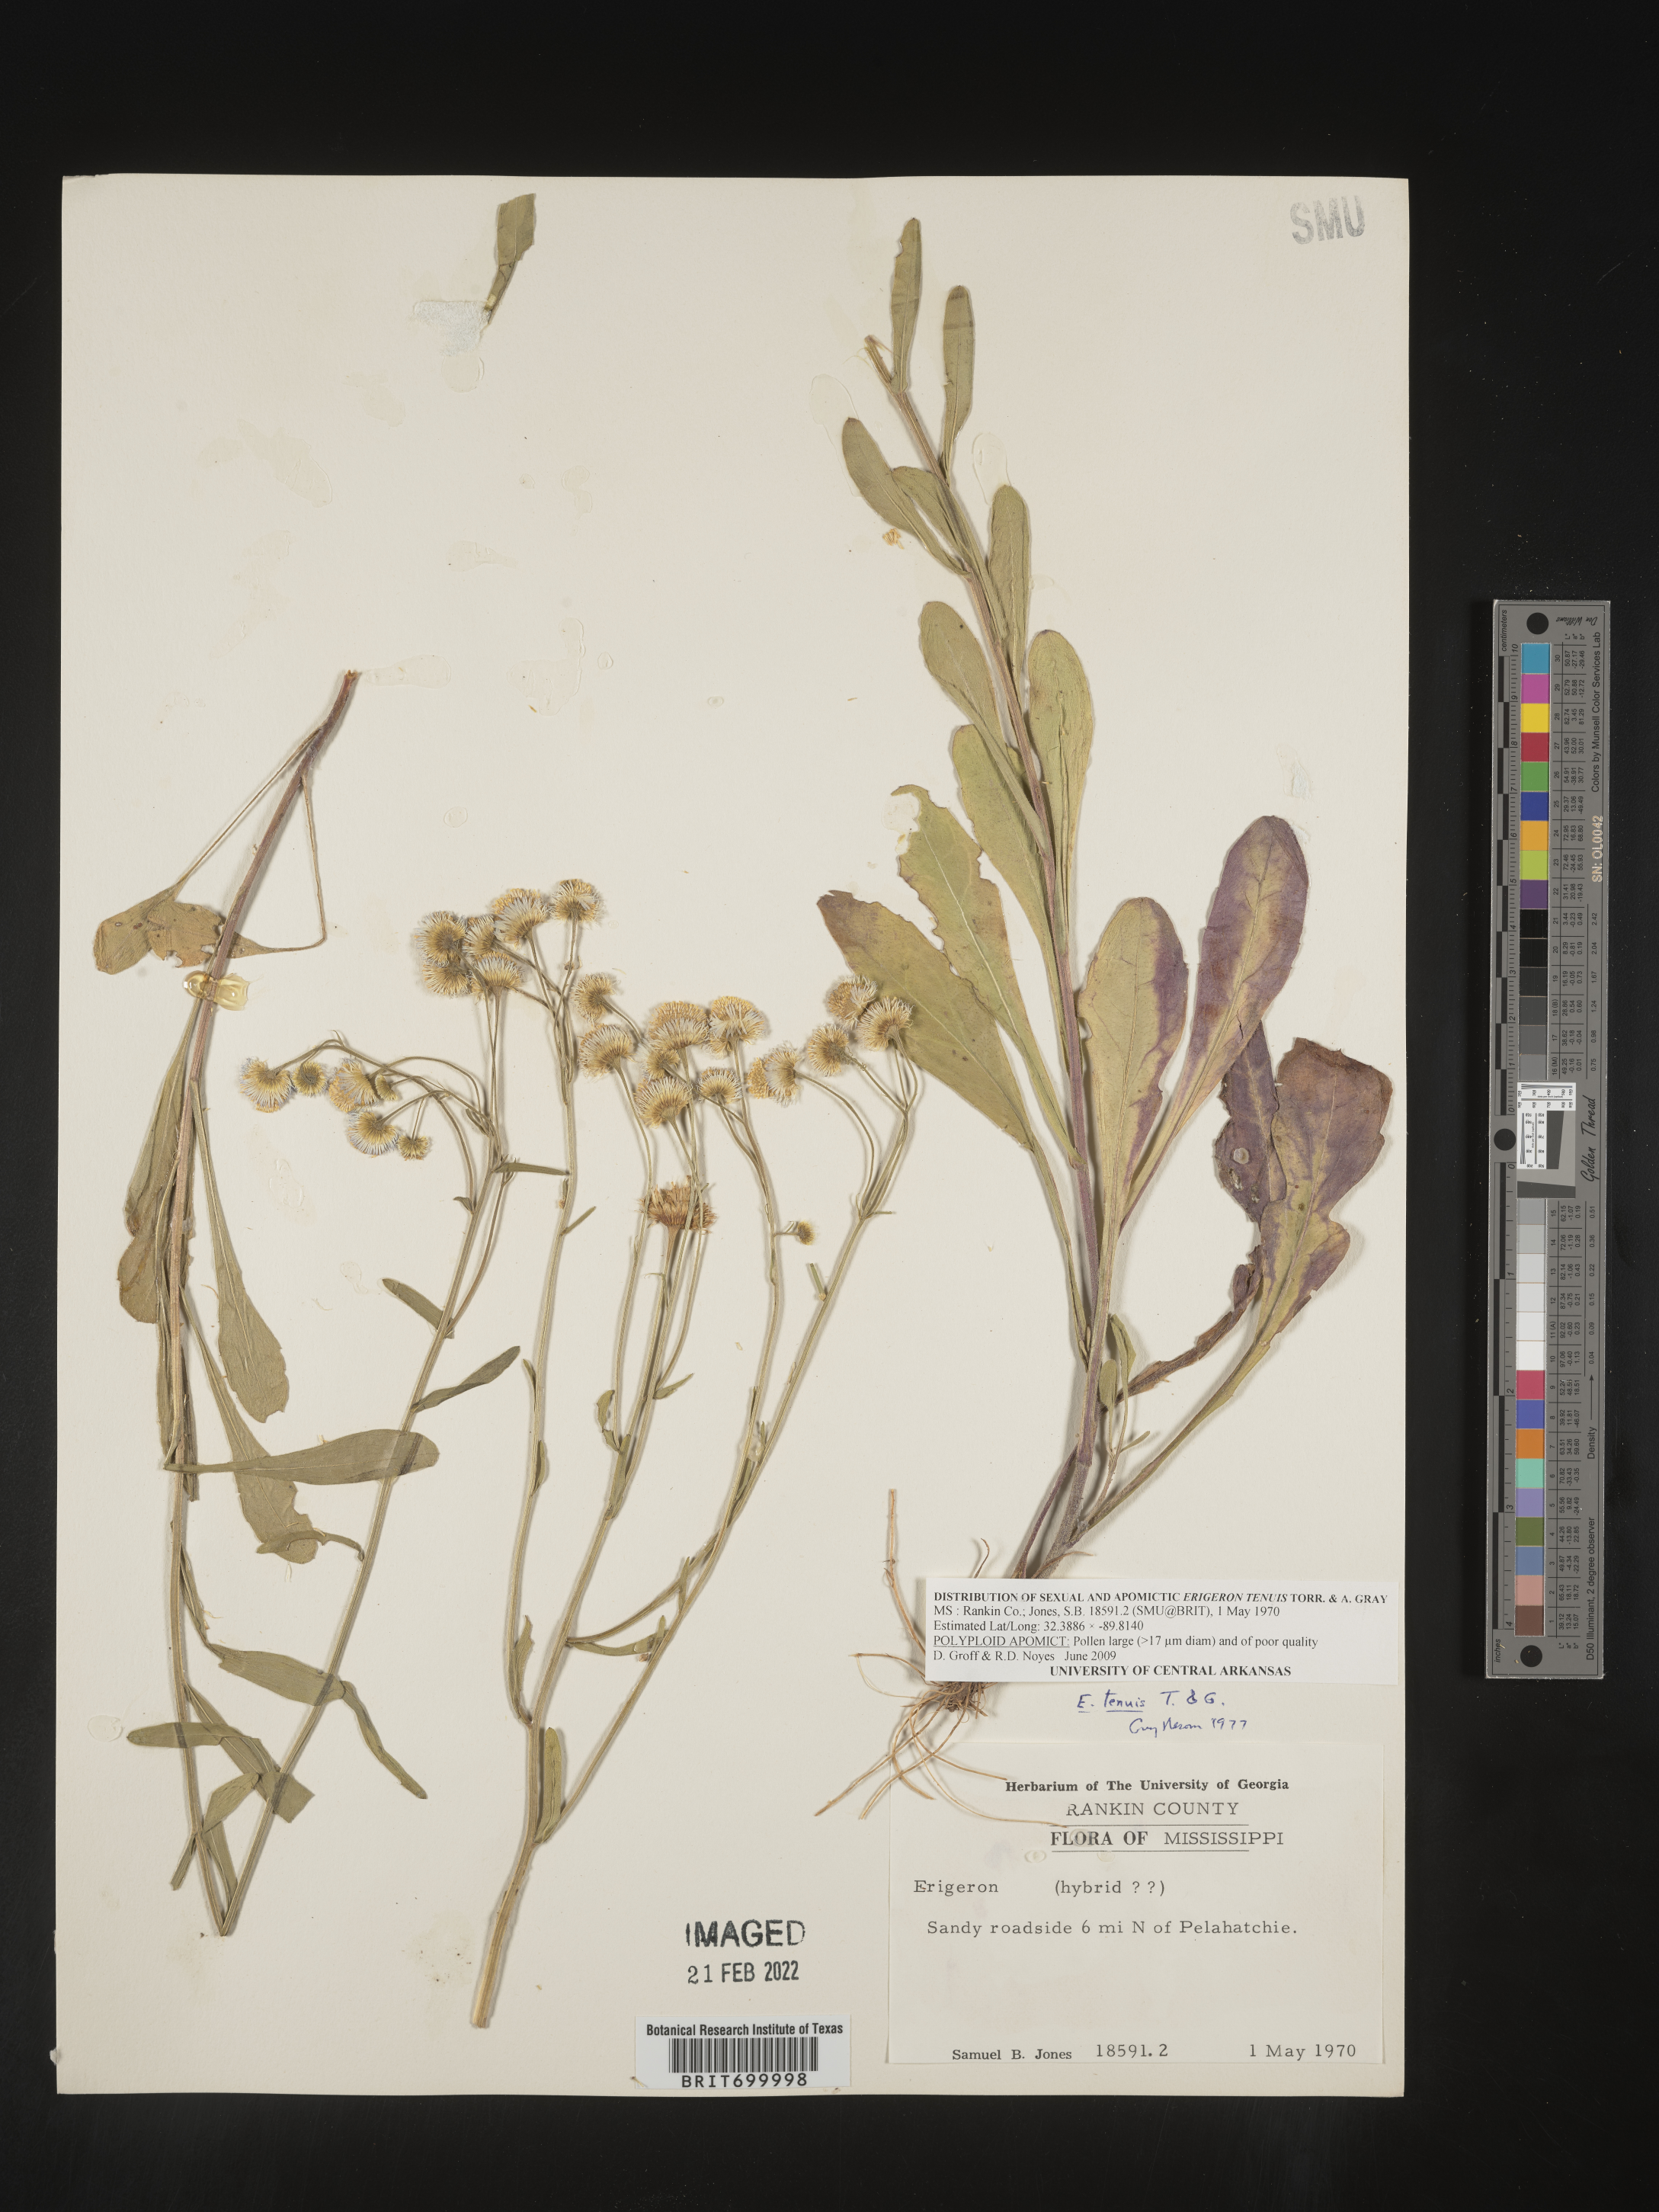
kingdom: Plantae
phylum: Tracheophyta
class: Magnoliopsida
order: Asterales
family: Asteraceae
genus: Erigeron
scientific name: Erigeron tenuis
